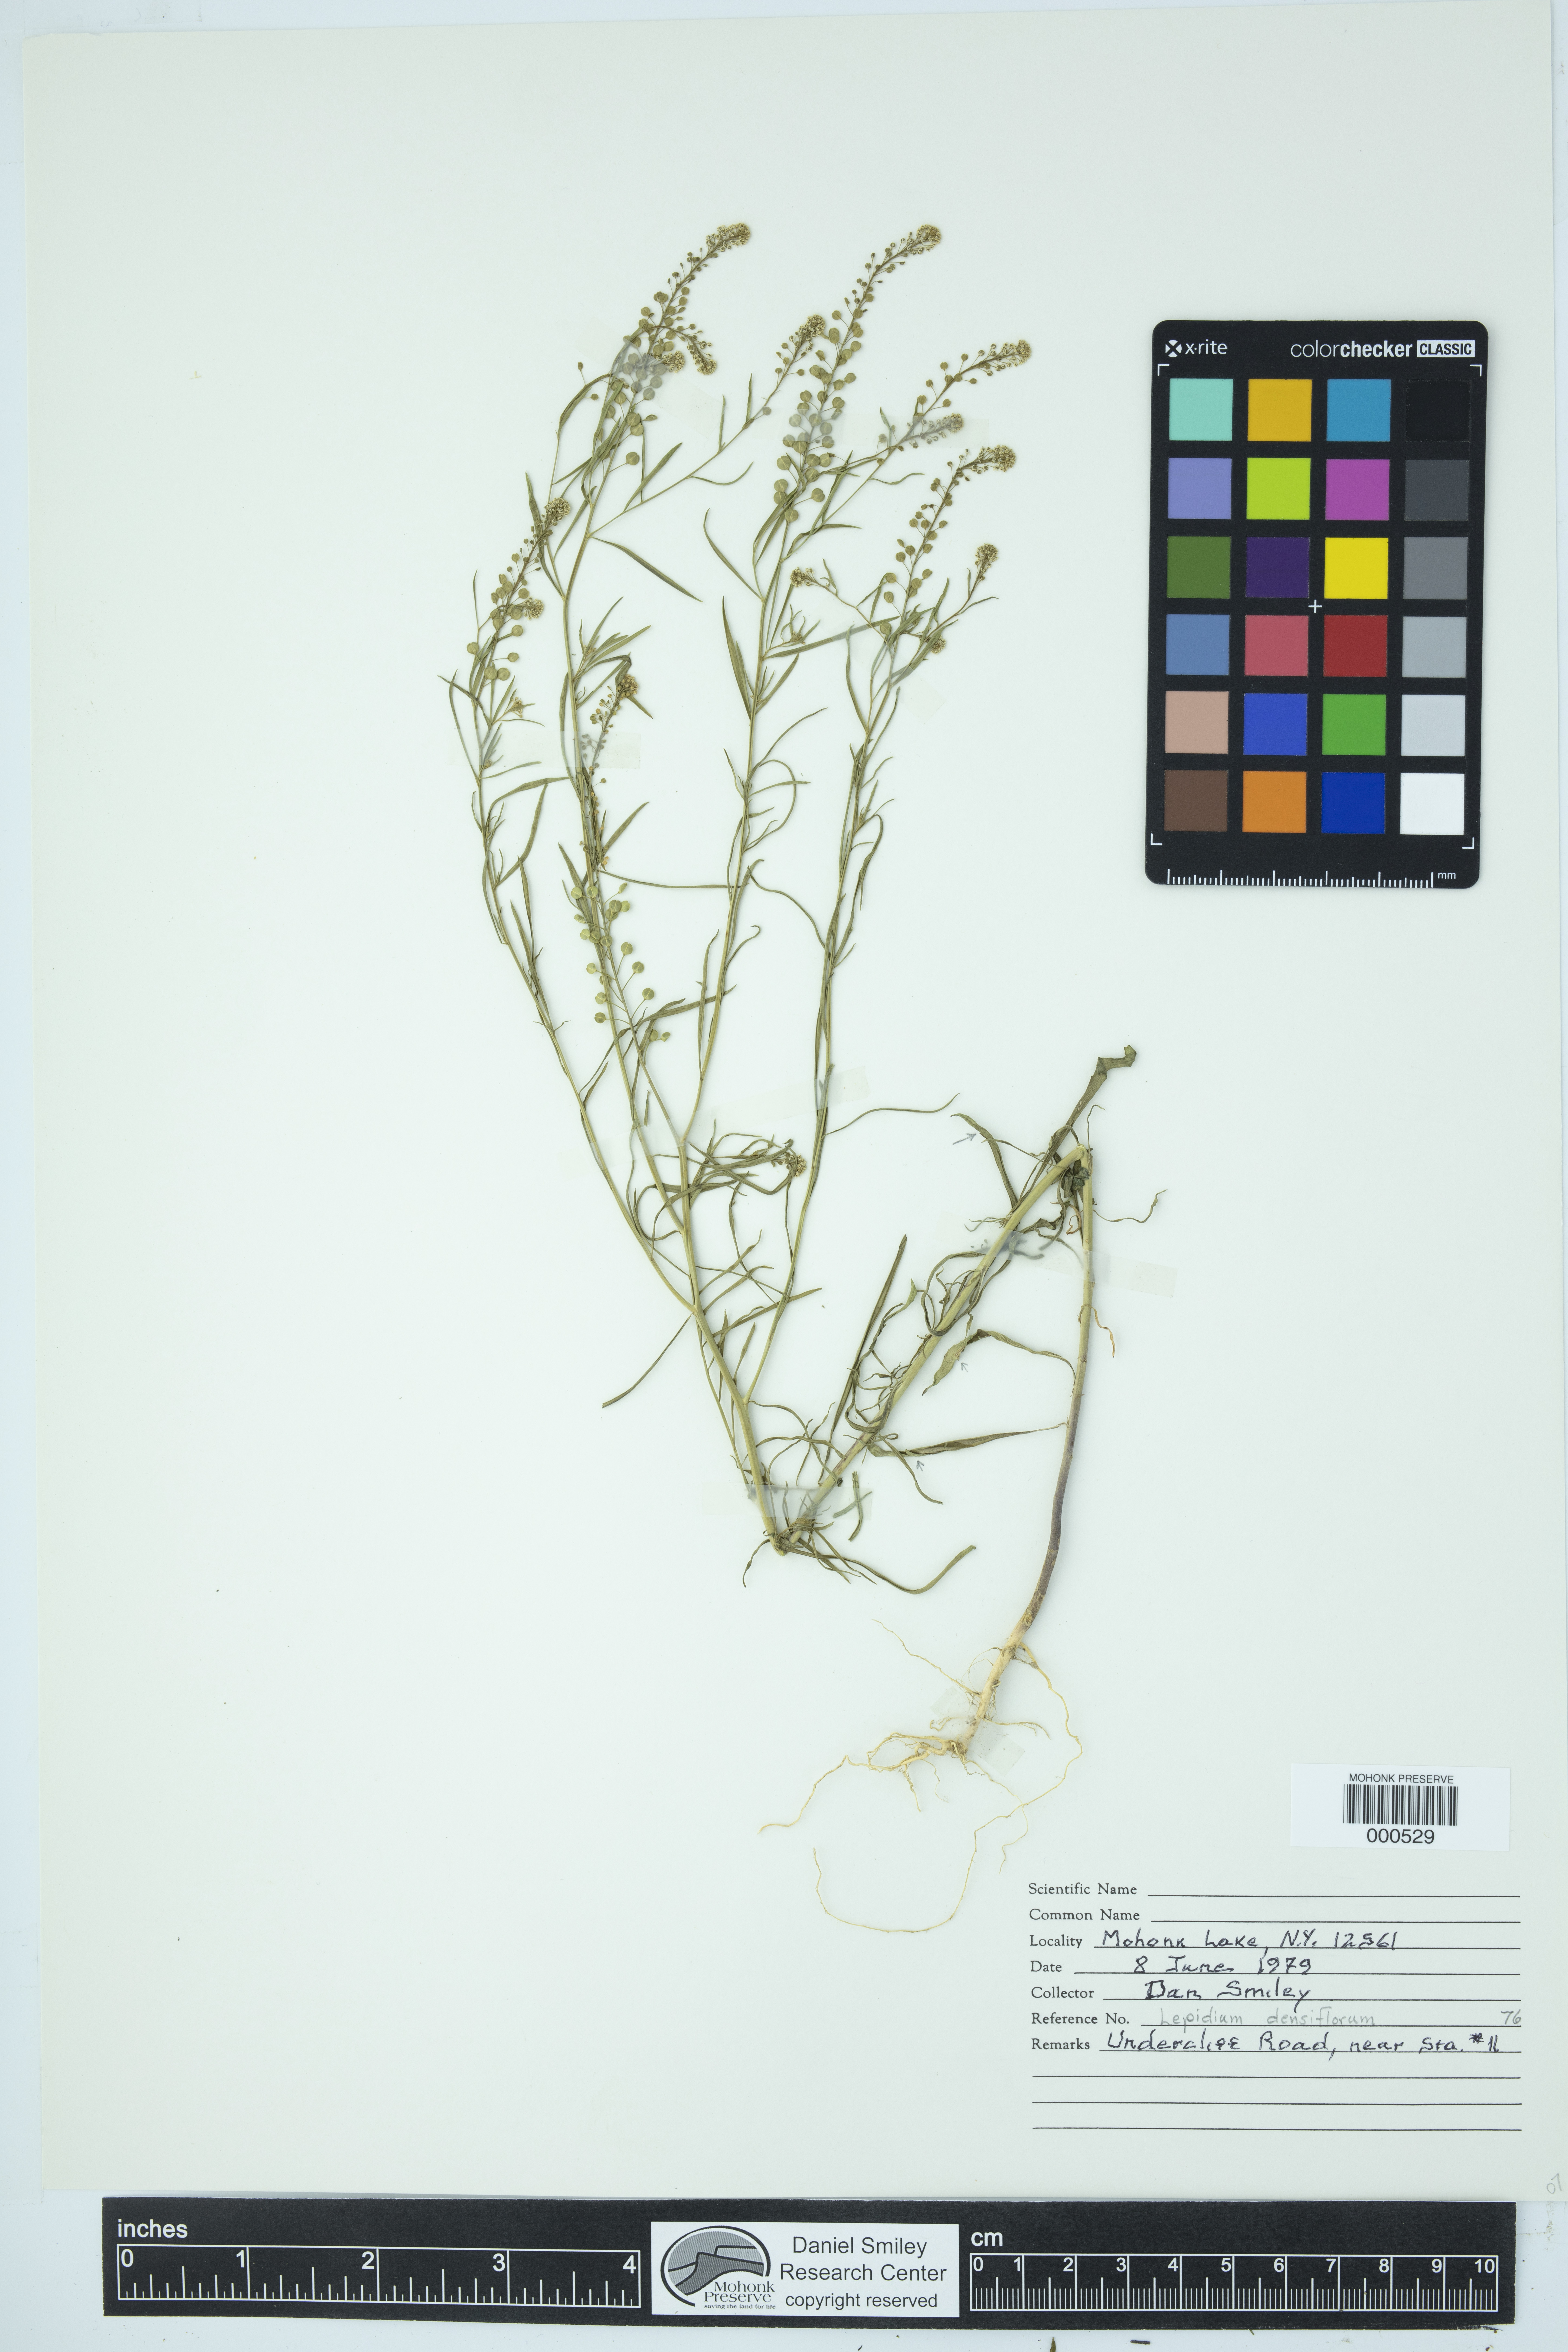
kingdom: Plantae
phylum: Tracheophyta
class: Magnoliopsida
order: Brassicales
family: Brassicaceae
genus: Lepidium
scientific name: Lepidium densiflorum
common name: Miner's pepperwort
